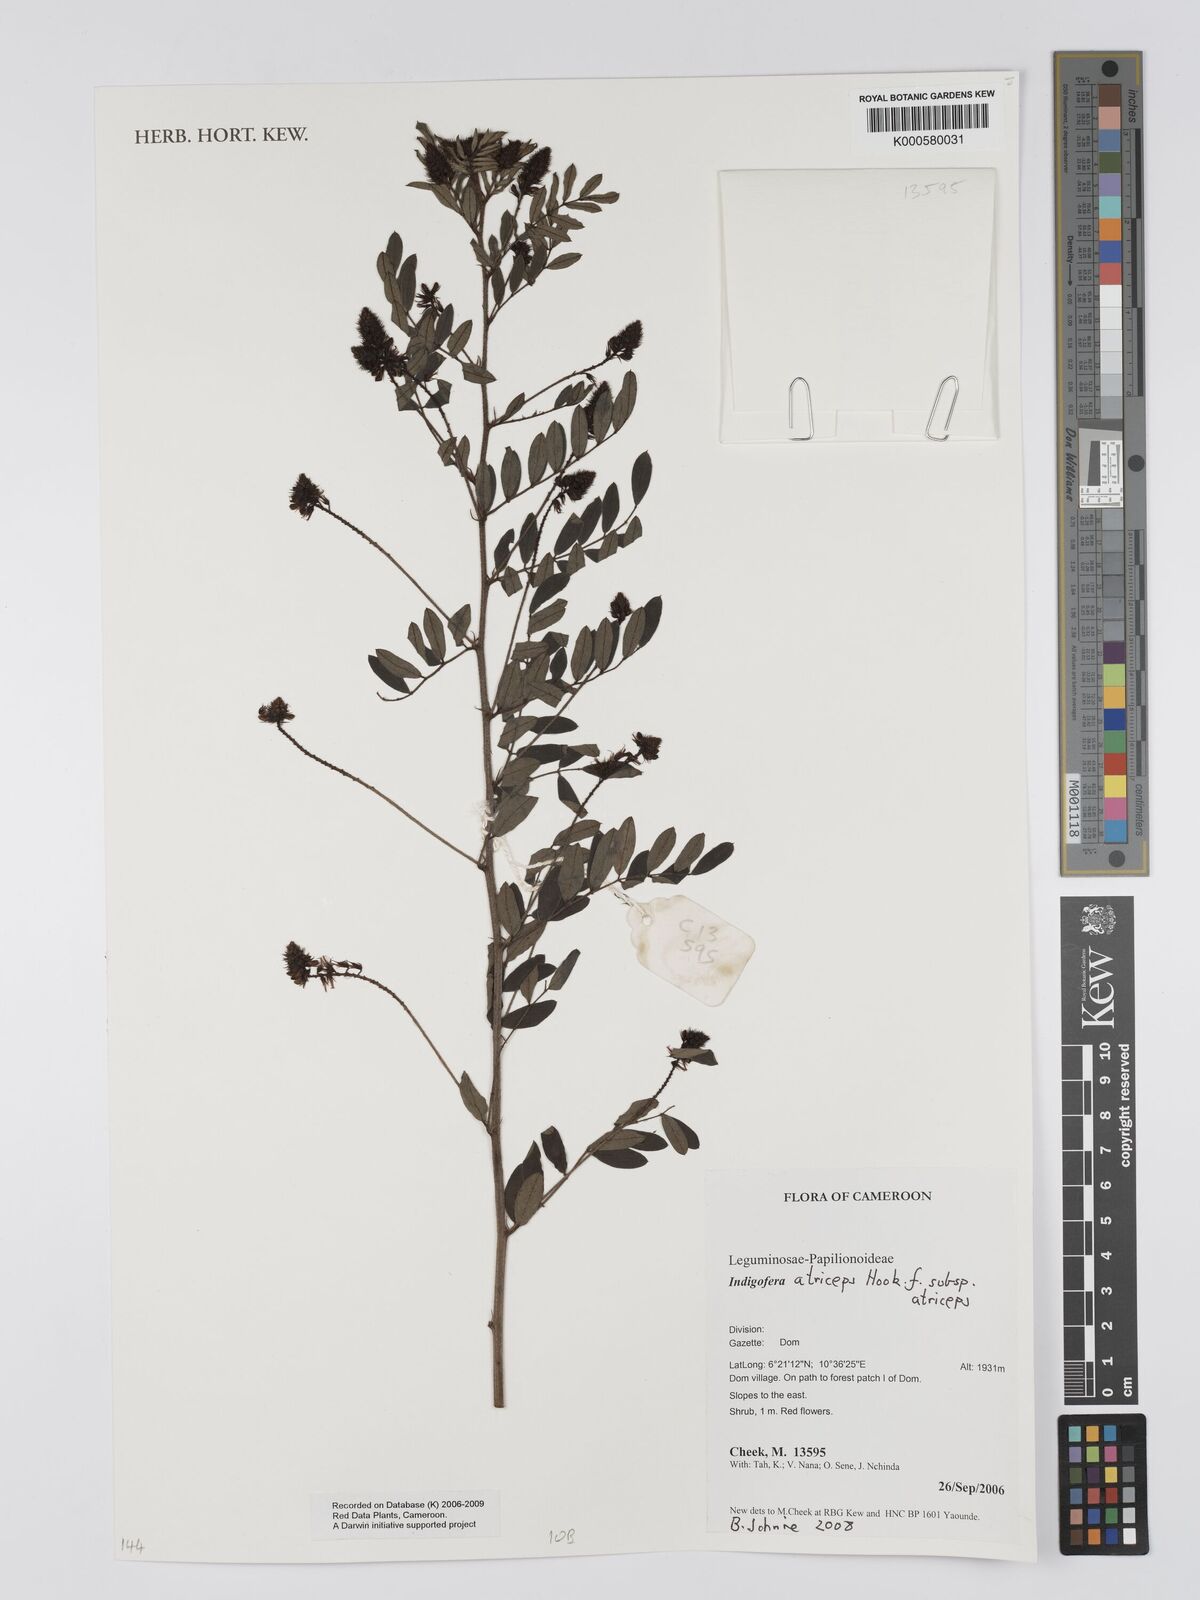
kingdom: Plantae
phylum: Tracheophyta
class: Magnoliopsida
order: Fabales
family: Fabaceae
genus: Indigofera
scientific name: Indigofera atriceps
